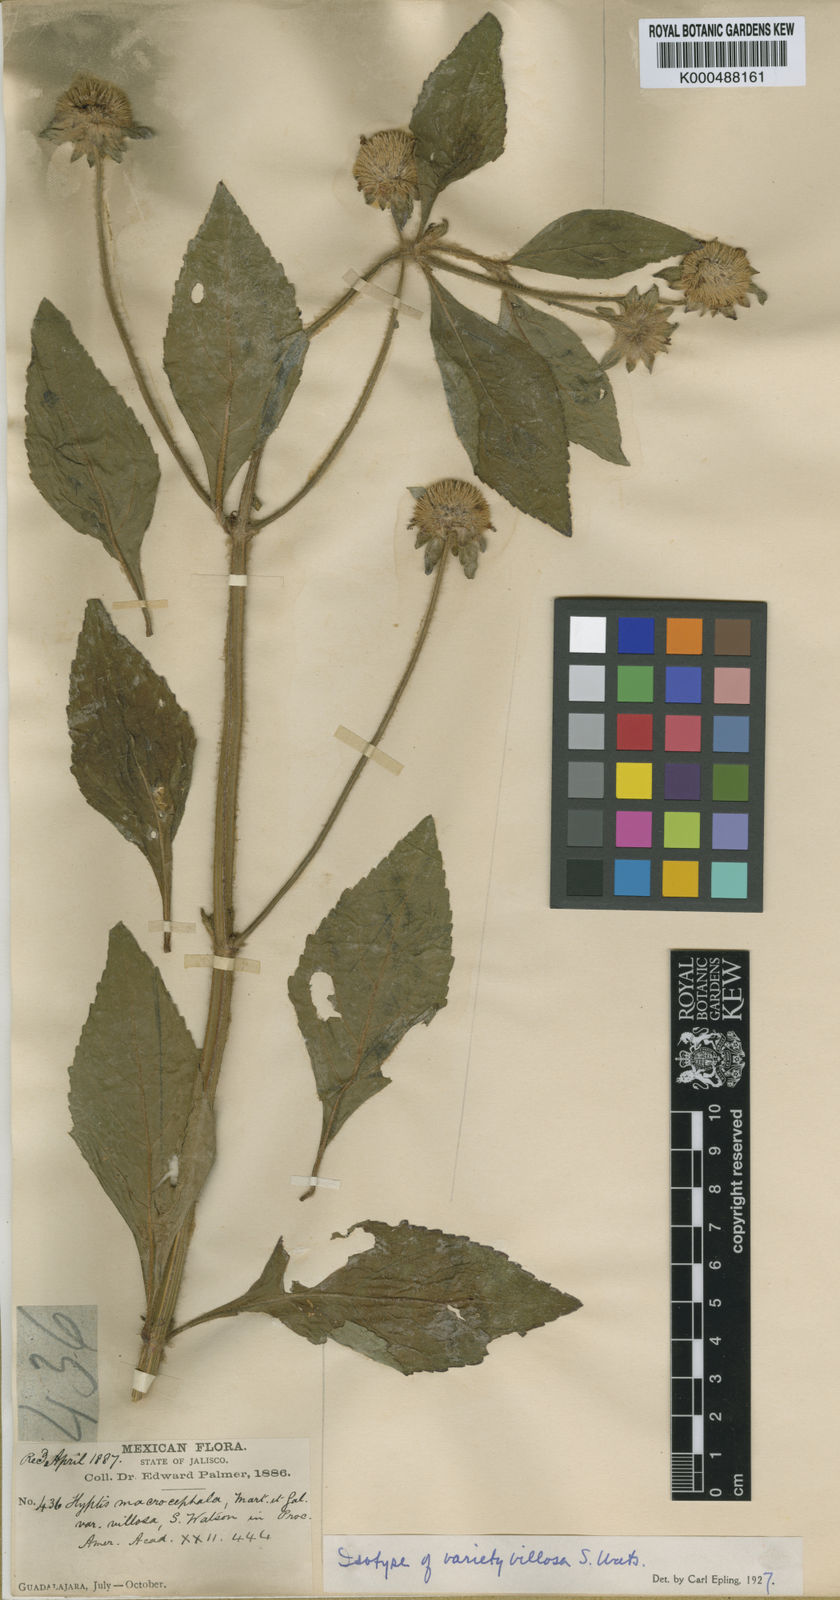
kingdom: Plantae
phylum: Tracheophyta
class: Magnoliopsida
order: Lamiales
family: Lamiaceae
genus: Hyptis
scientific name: Hyptis macrocephala
